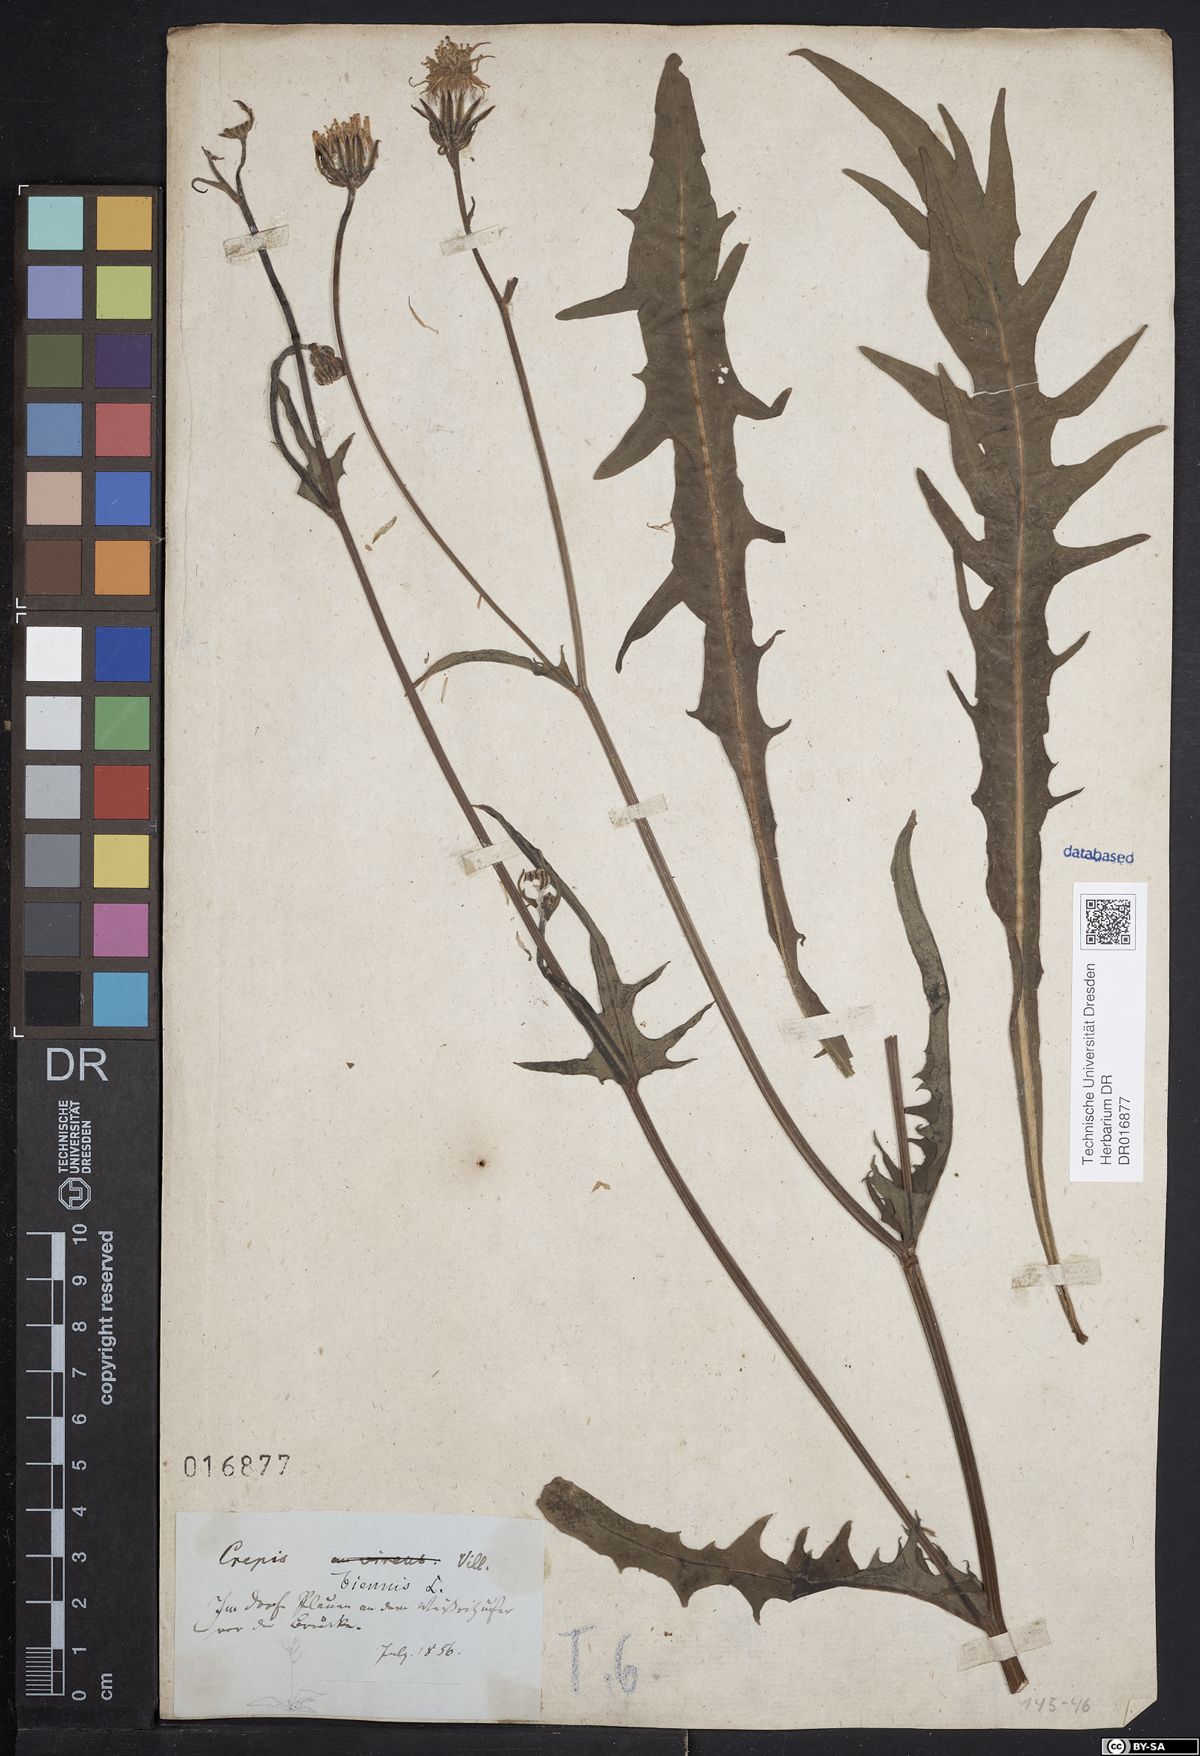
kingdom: Plantae
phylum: Tracheophyta
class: Magnoliopsida
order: Asterales
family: Asteraceae
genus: Crepis
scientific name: Crepis biennis
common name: Rough hawk's-beard
